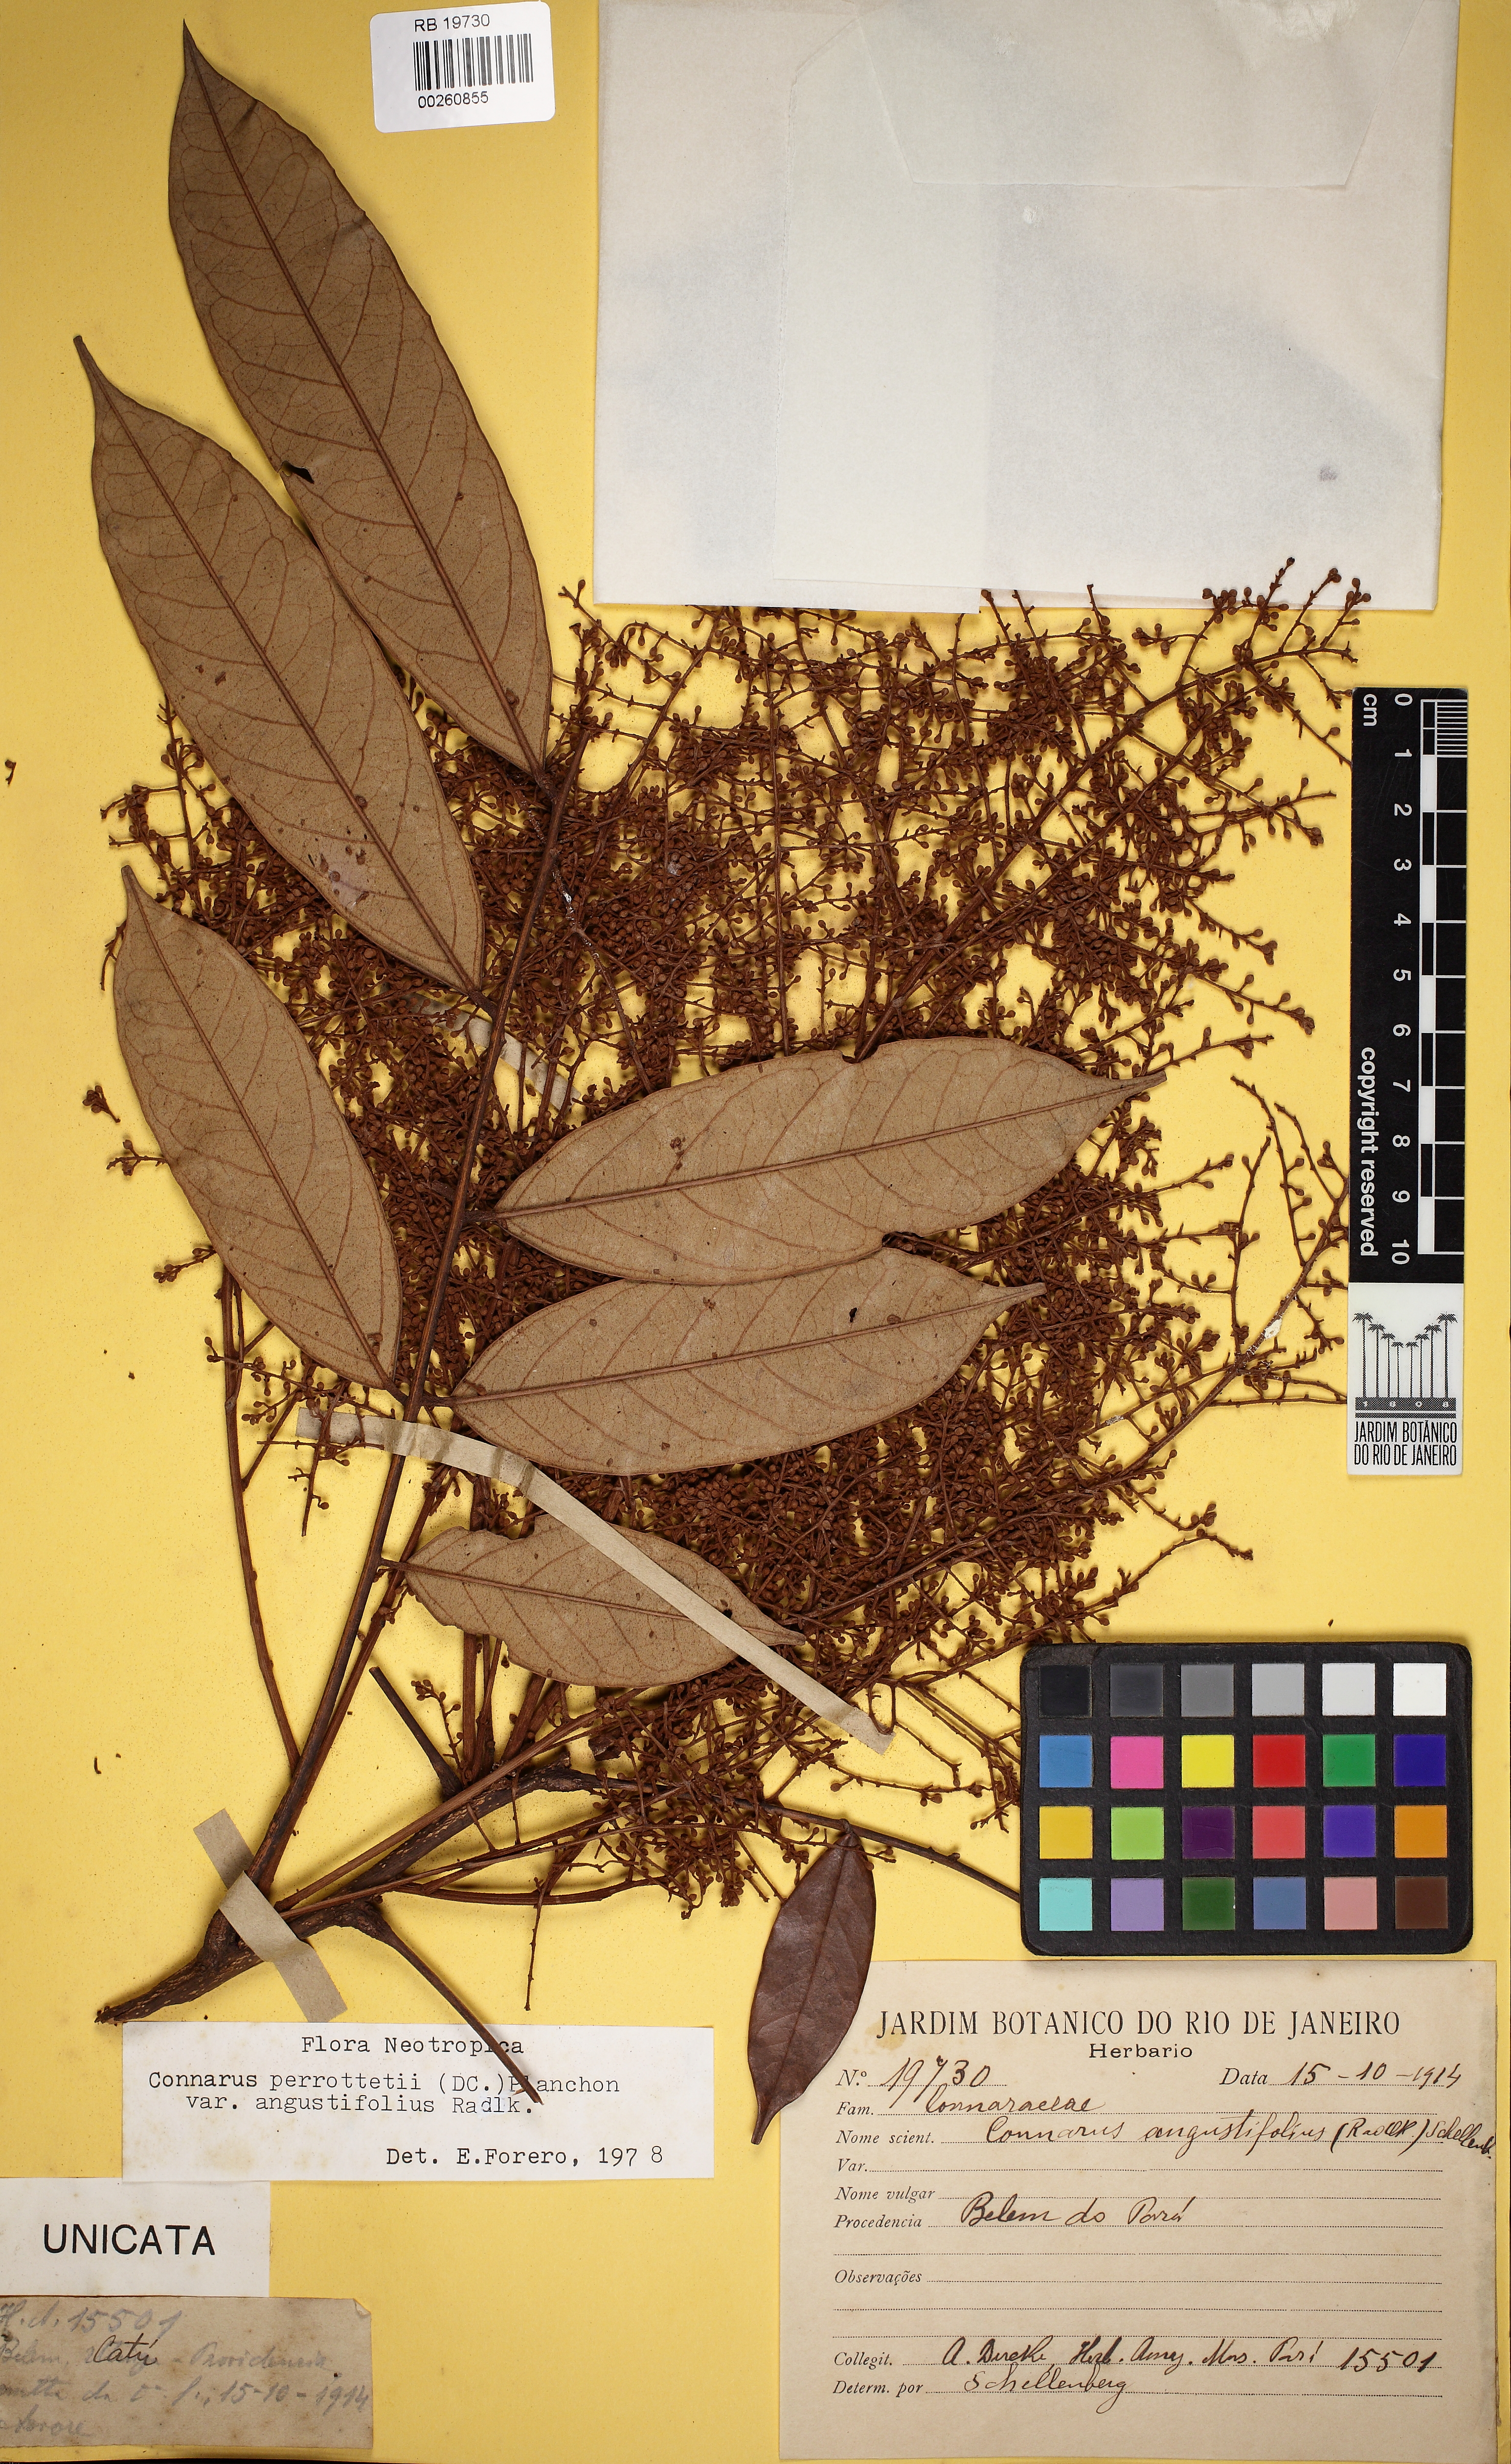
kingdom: Plantae
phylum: Tracheophyta
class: Magnoliopsida
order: Oxalidales
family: Connaraceae
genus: Connarus
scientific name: Connarus perrottetii
